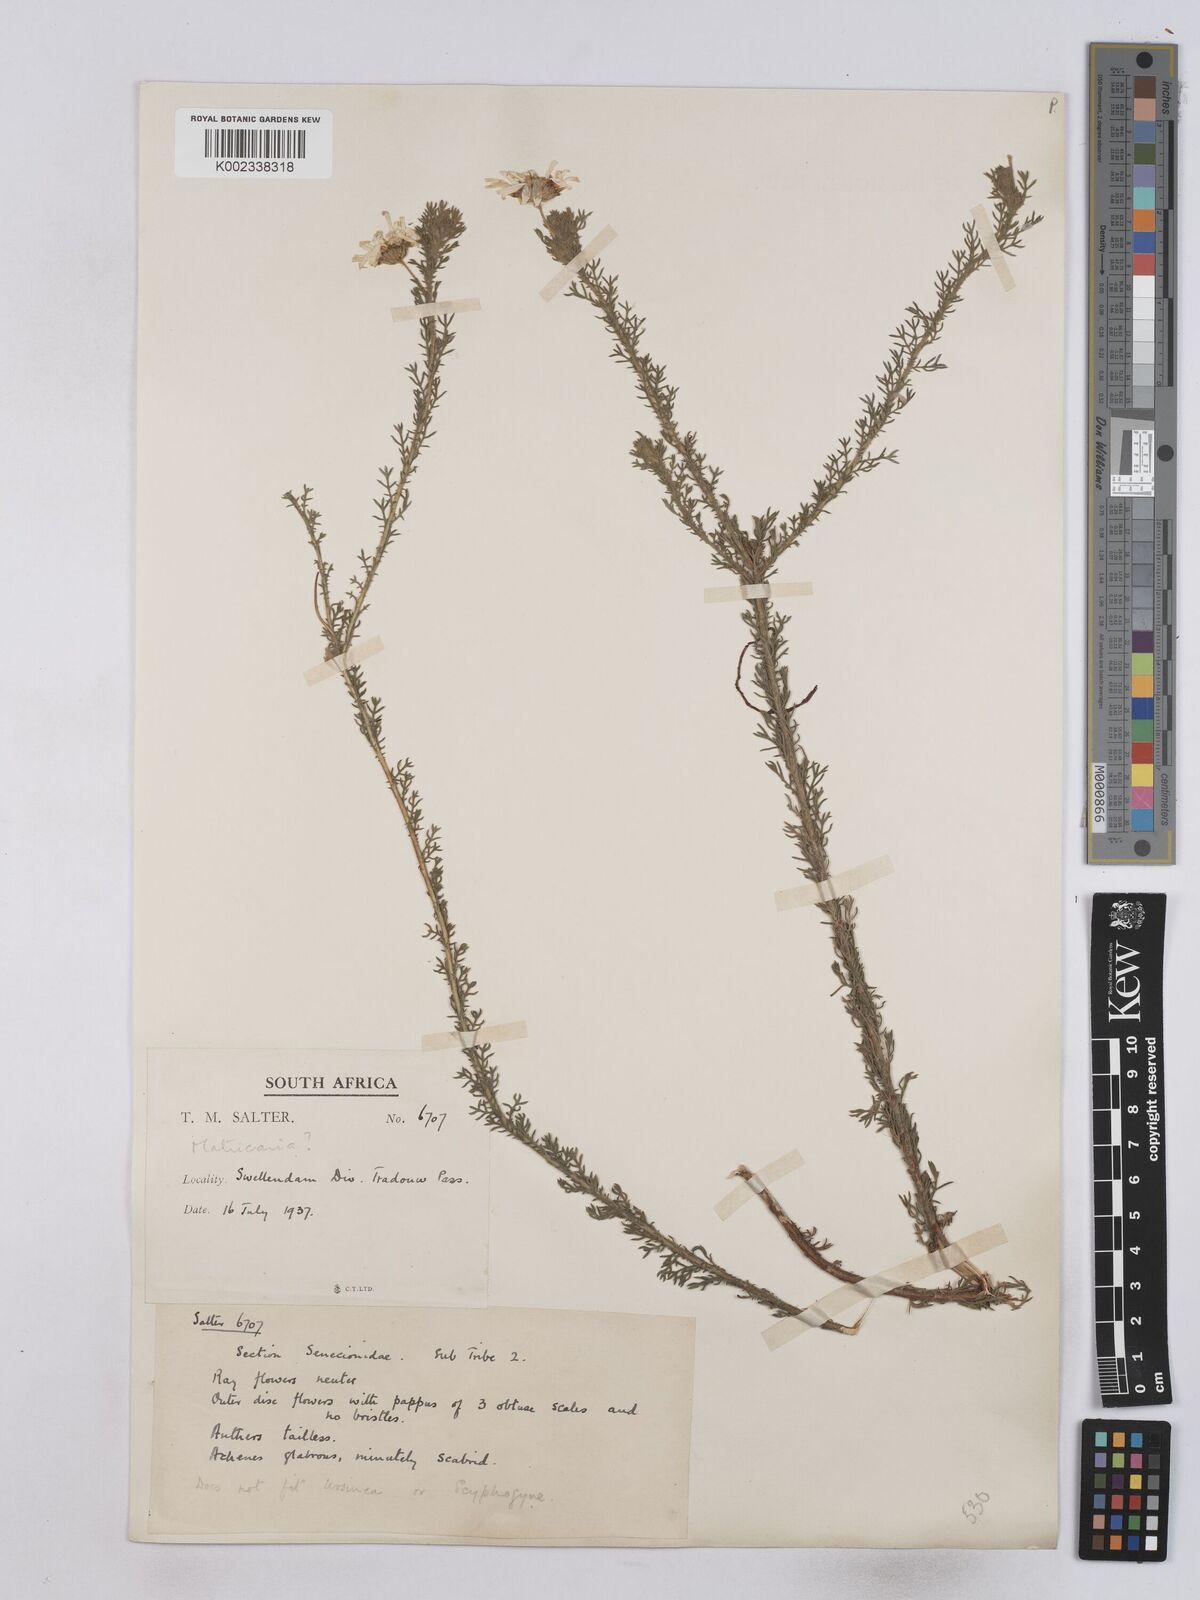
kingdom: Plantae
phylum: Tracheophyta
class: Magnoliopsida
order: Asterales
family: Asteraceae
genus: Matricaria
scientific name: Matricaria
